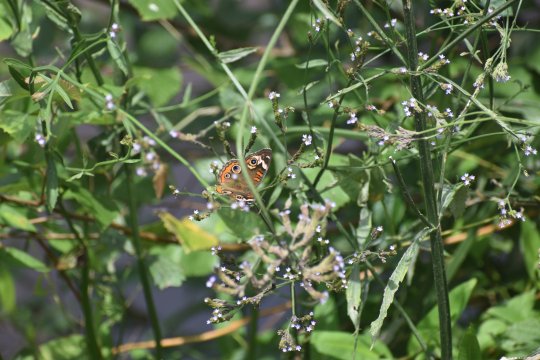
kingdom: Animalia
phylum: Arthropoda
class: Insecta
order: Lepidoptera
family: Pieridae
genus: Abaeis
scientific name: Abaeis nicippe
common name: Sleepy Orange
